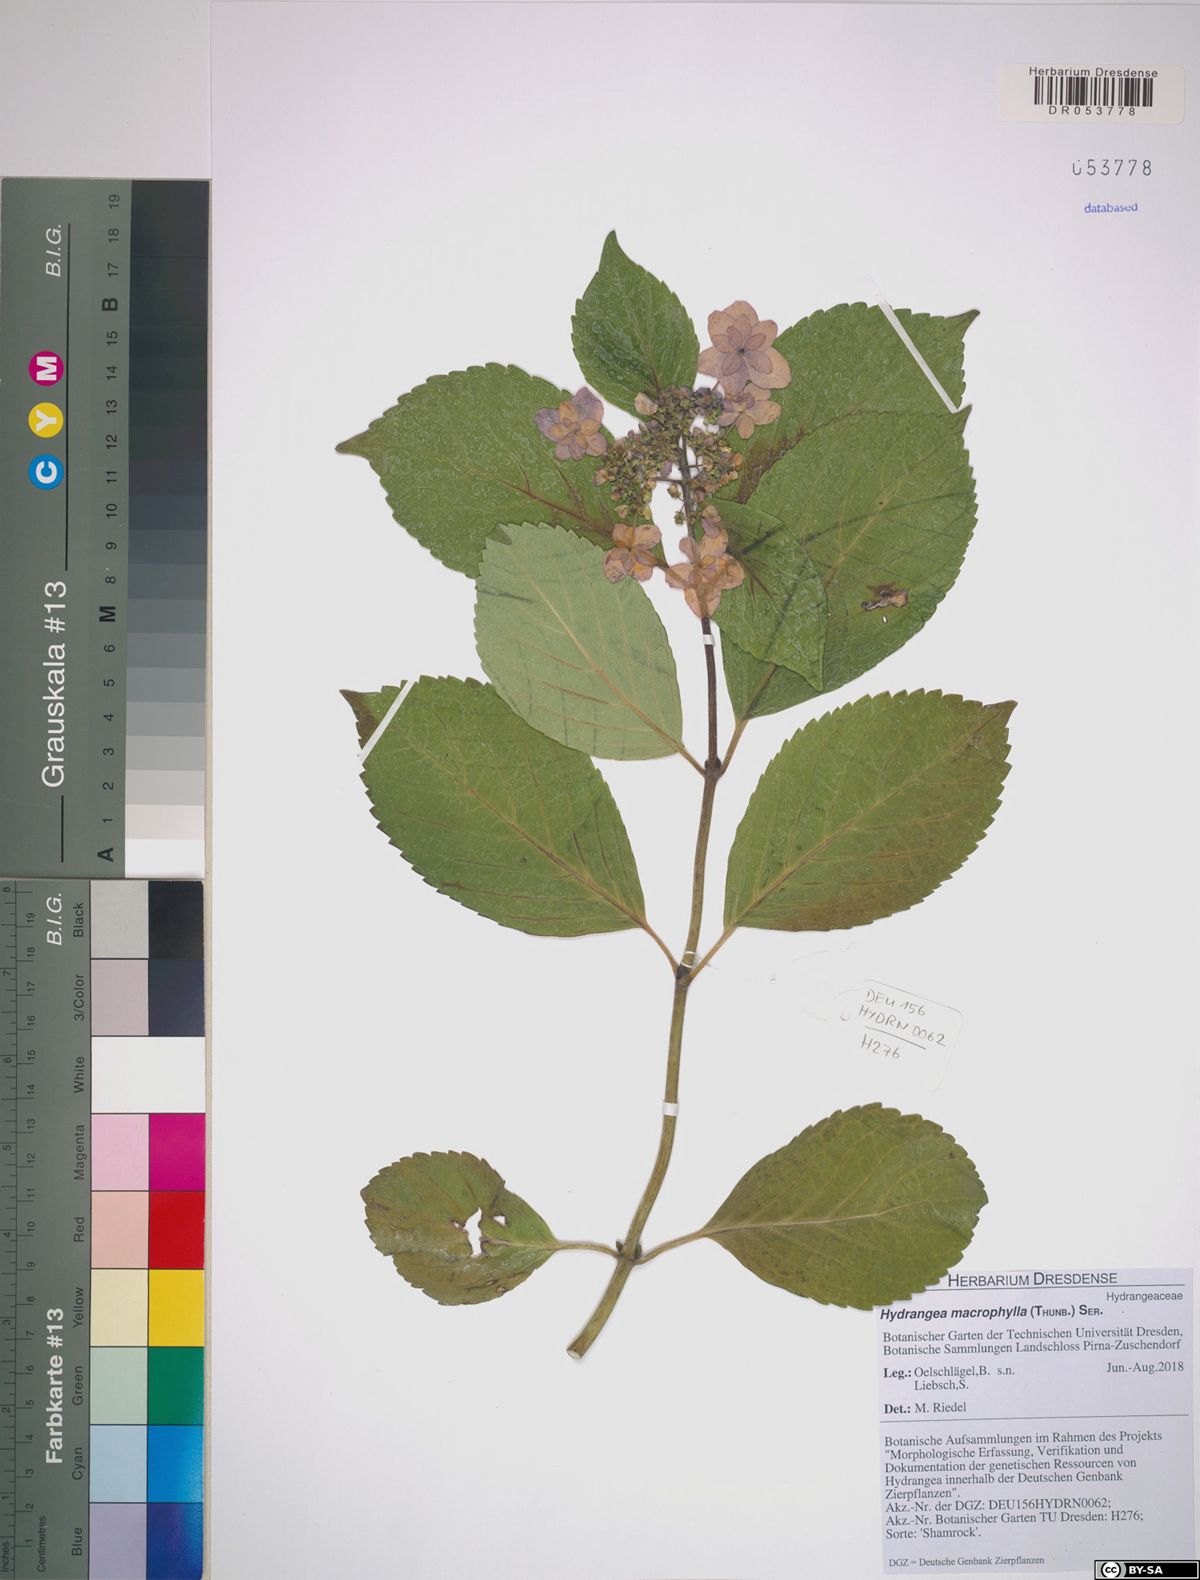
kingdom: Plantae
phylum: Tracheophyta
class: Magnoliopsida
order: Cornales
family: Hydrangeaceae
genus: Hydrangea
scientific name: Hydrangea macrophylla
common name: Hydrangea
